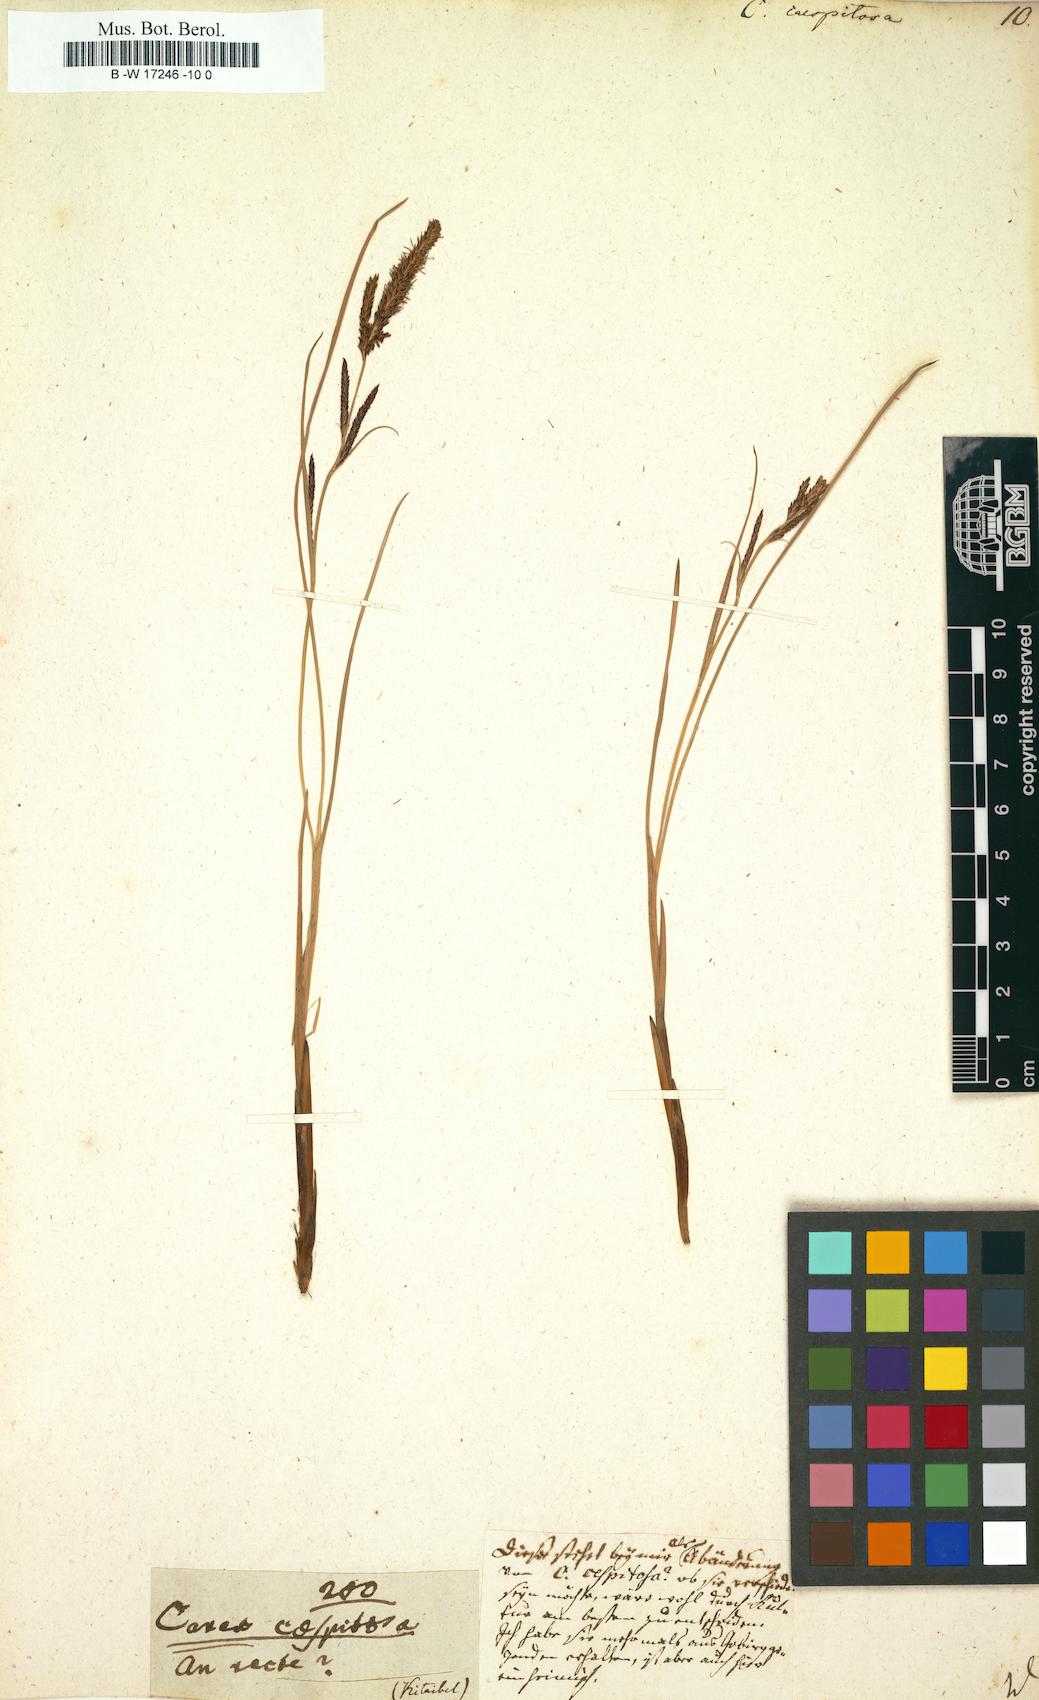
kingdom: Plantae
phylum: Tracheophyta
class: Liliopsida
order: Poales
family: Cyperaceae
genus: Carex
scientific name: Carex cespitosa
